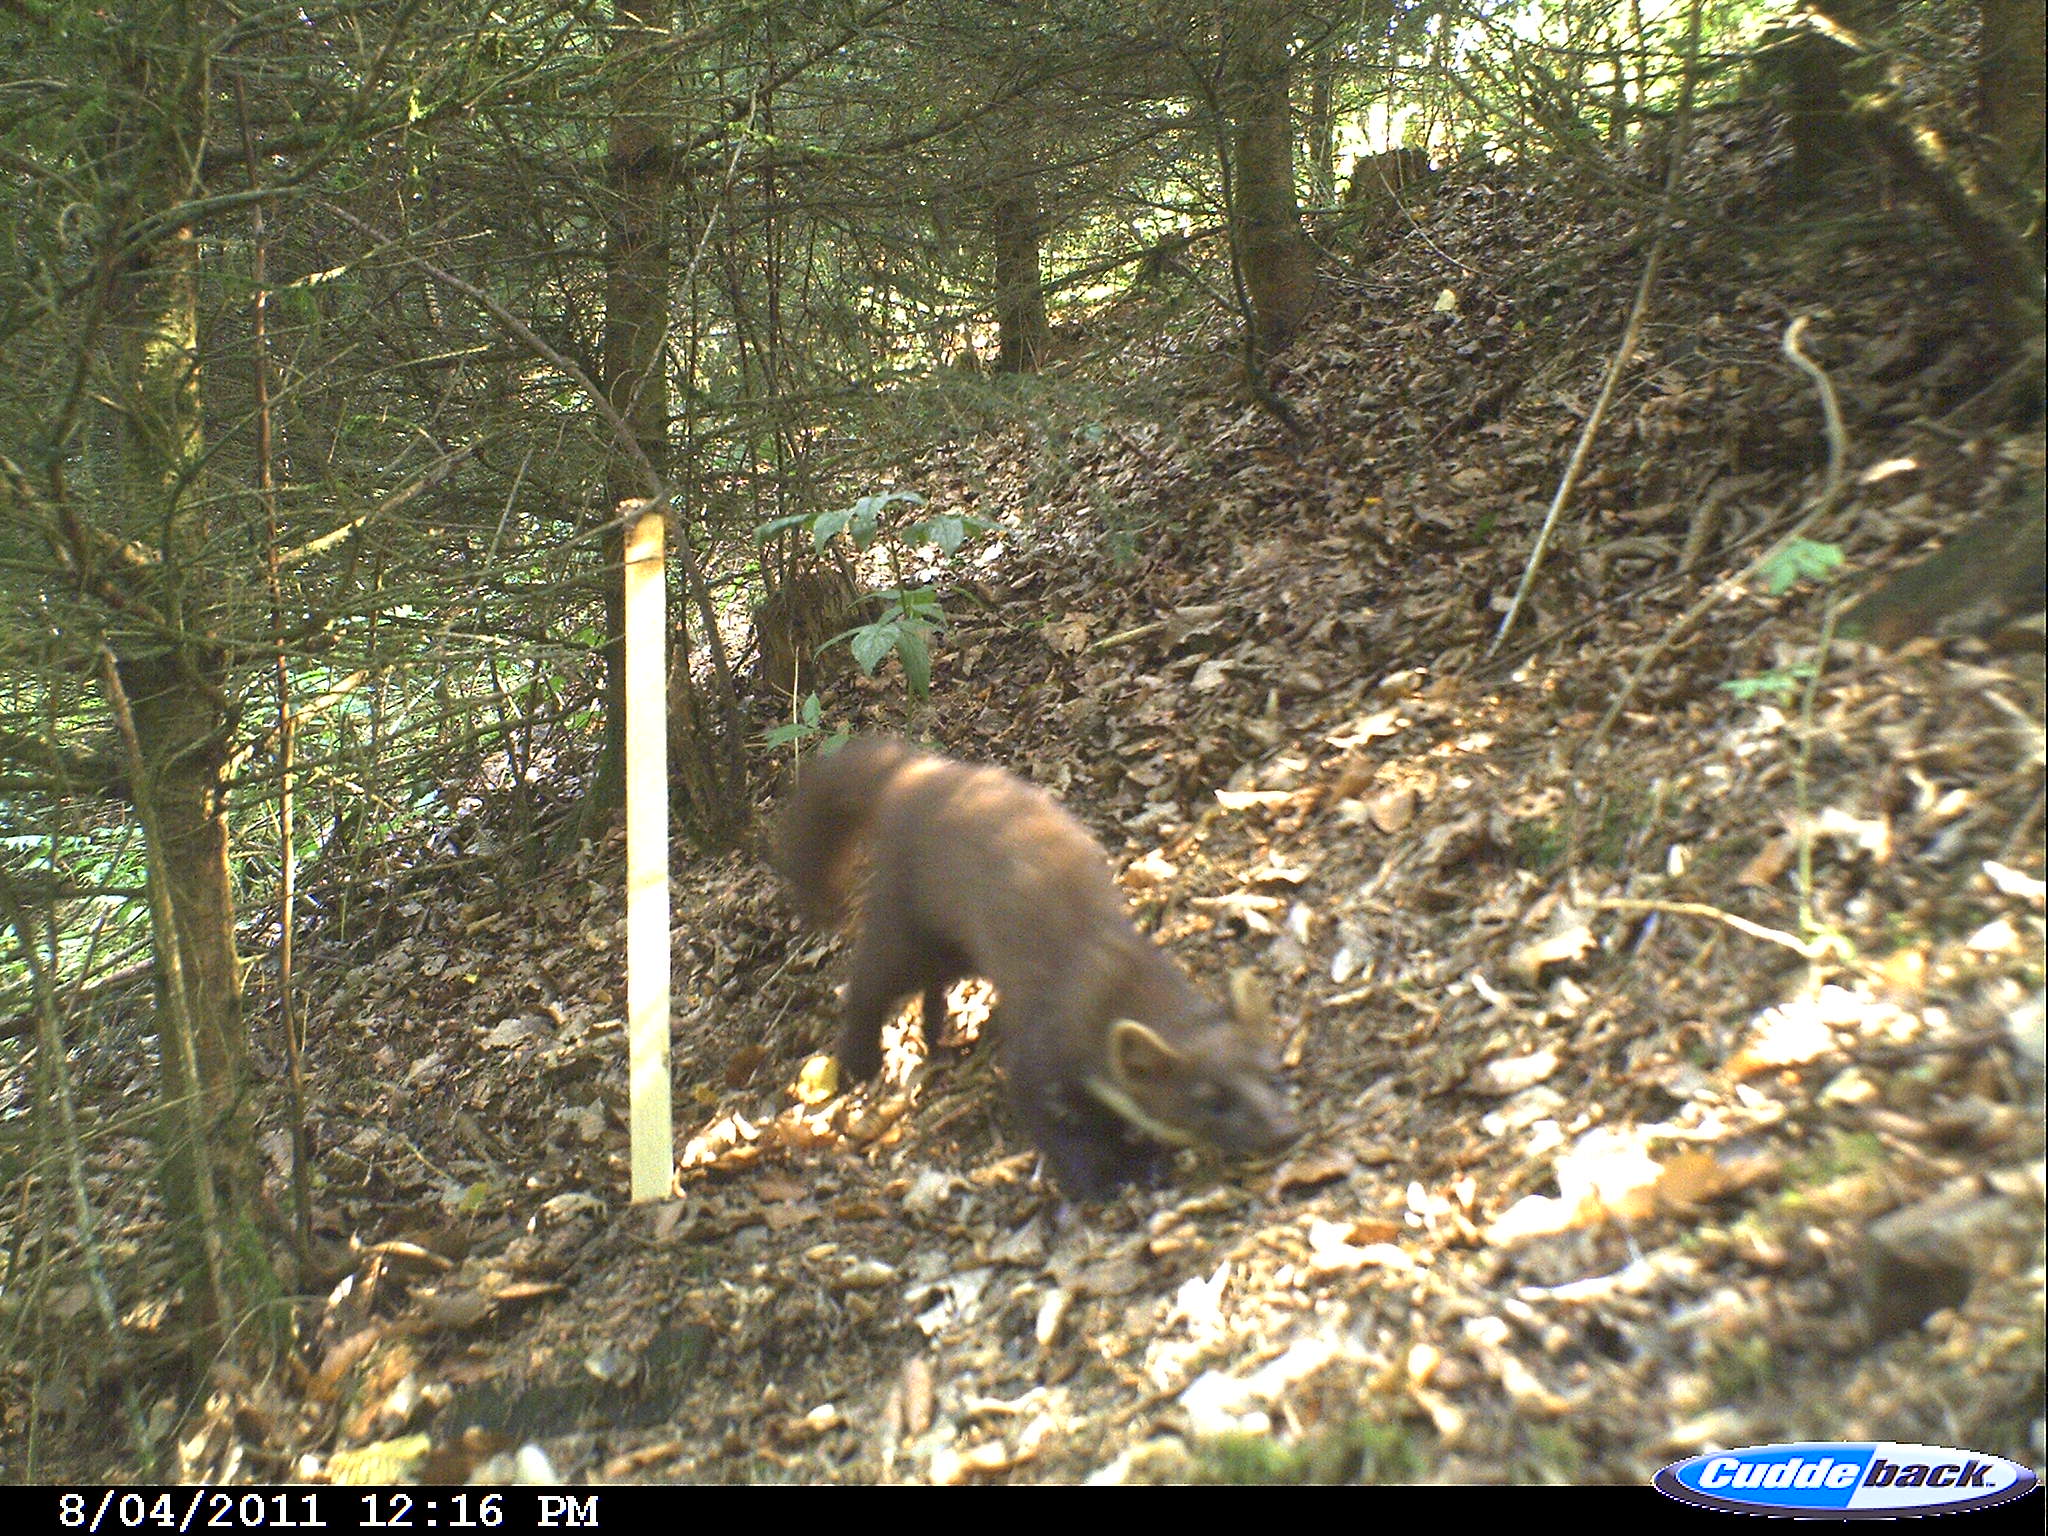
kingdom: Animalia
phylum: Chordata
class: Mammalia
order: Carnivora
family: Mustelidae
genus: Martes
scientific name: Martes martes
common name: European pine marten
